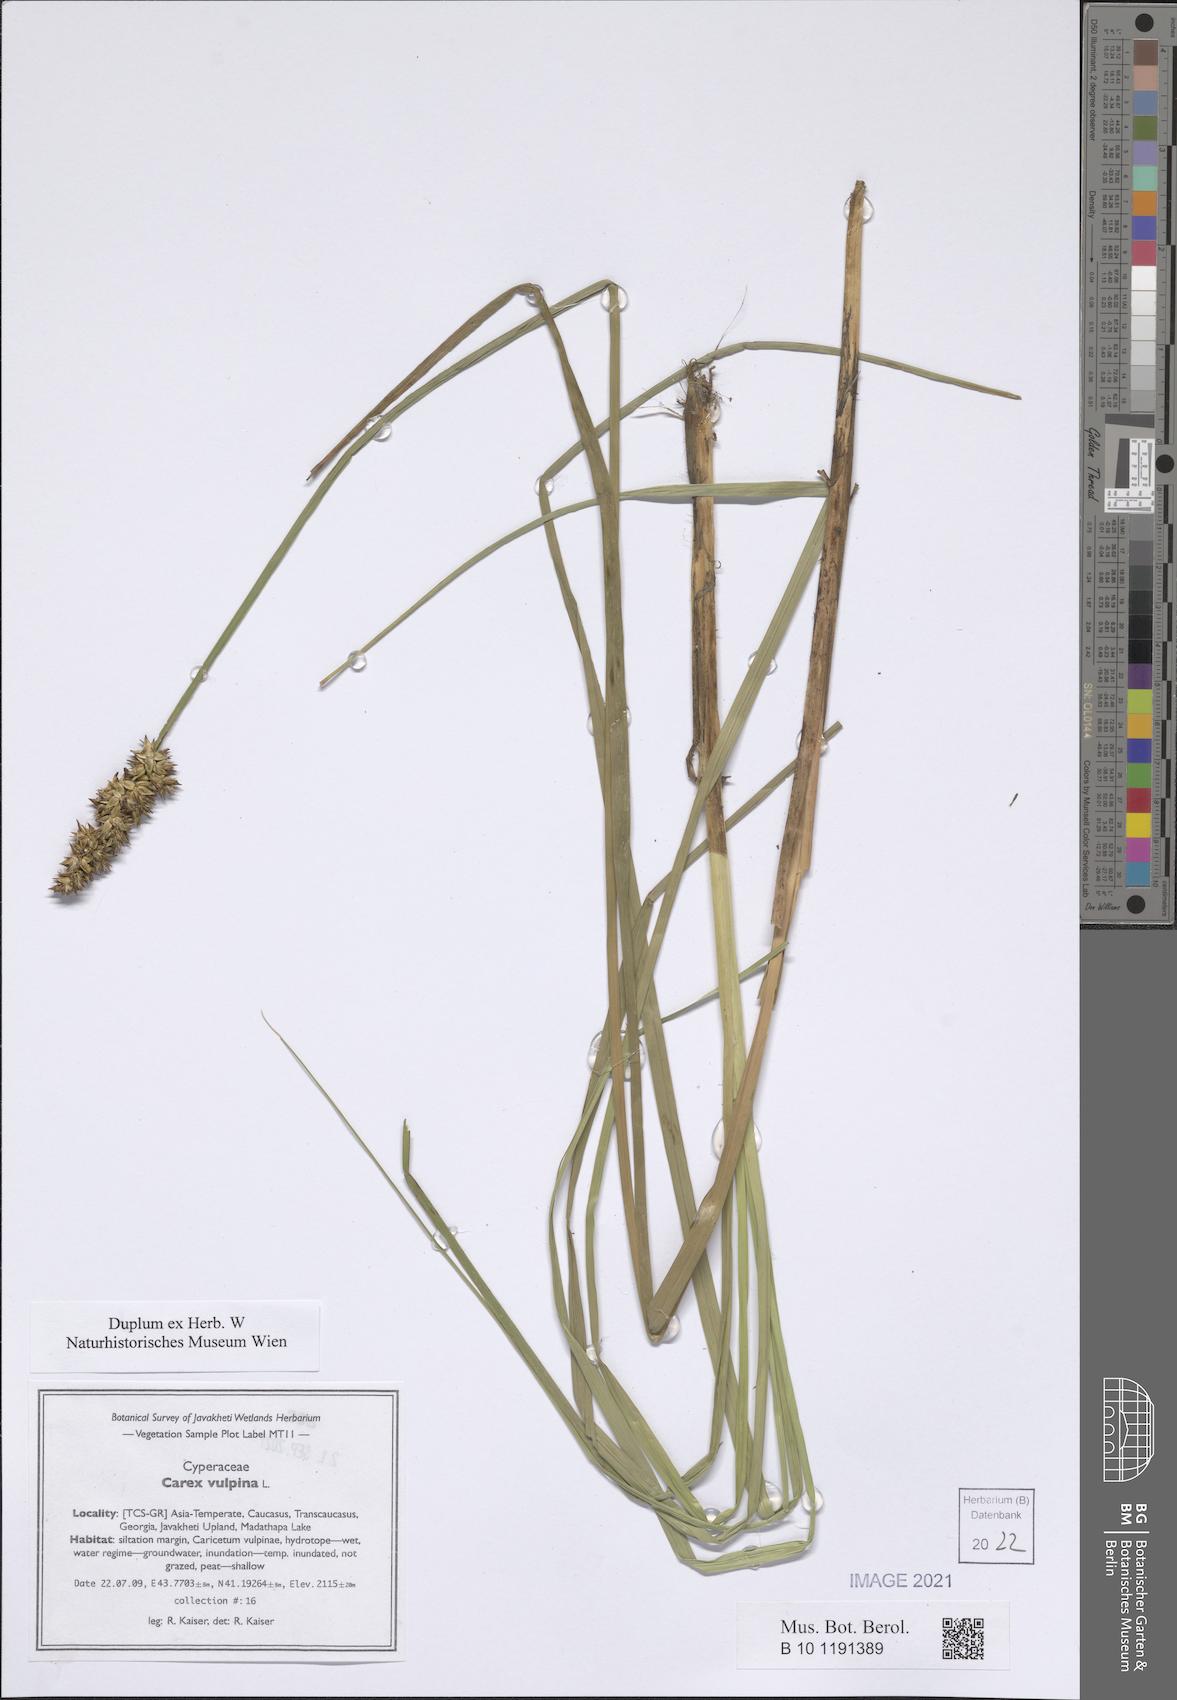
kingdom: Plantae
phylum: Tracheophyta
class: Liliopsida
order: Poales
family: Cyperaceae
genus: Carex
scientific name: Carex vulpina
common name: True fox-sedge
